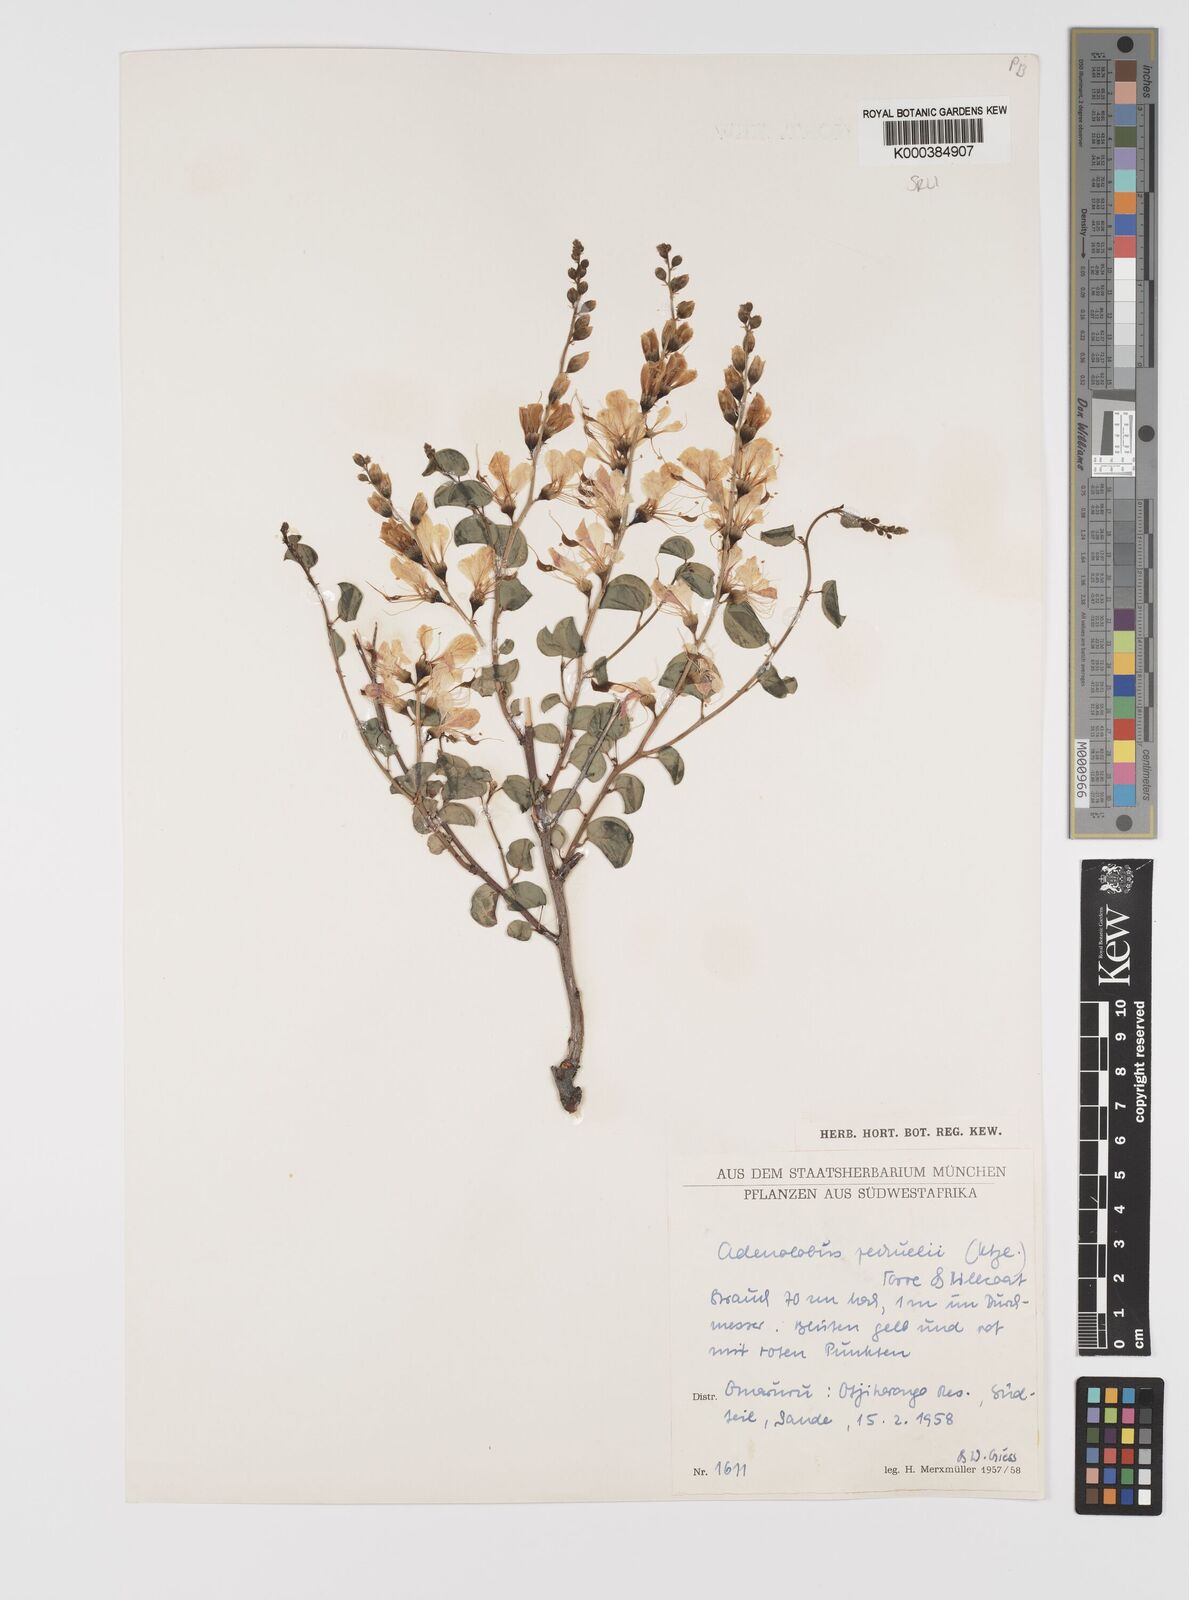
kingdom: Plantae
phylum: Tracheophyta
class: Magnoliopsida
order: Fabales
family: Fabaceae
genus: Adenolobus
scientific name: Adenolobus
